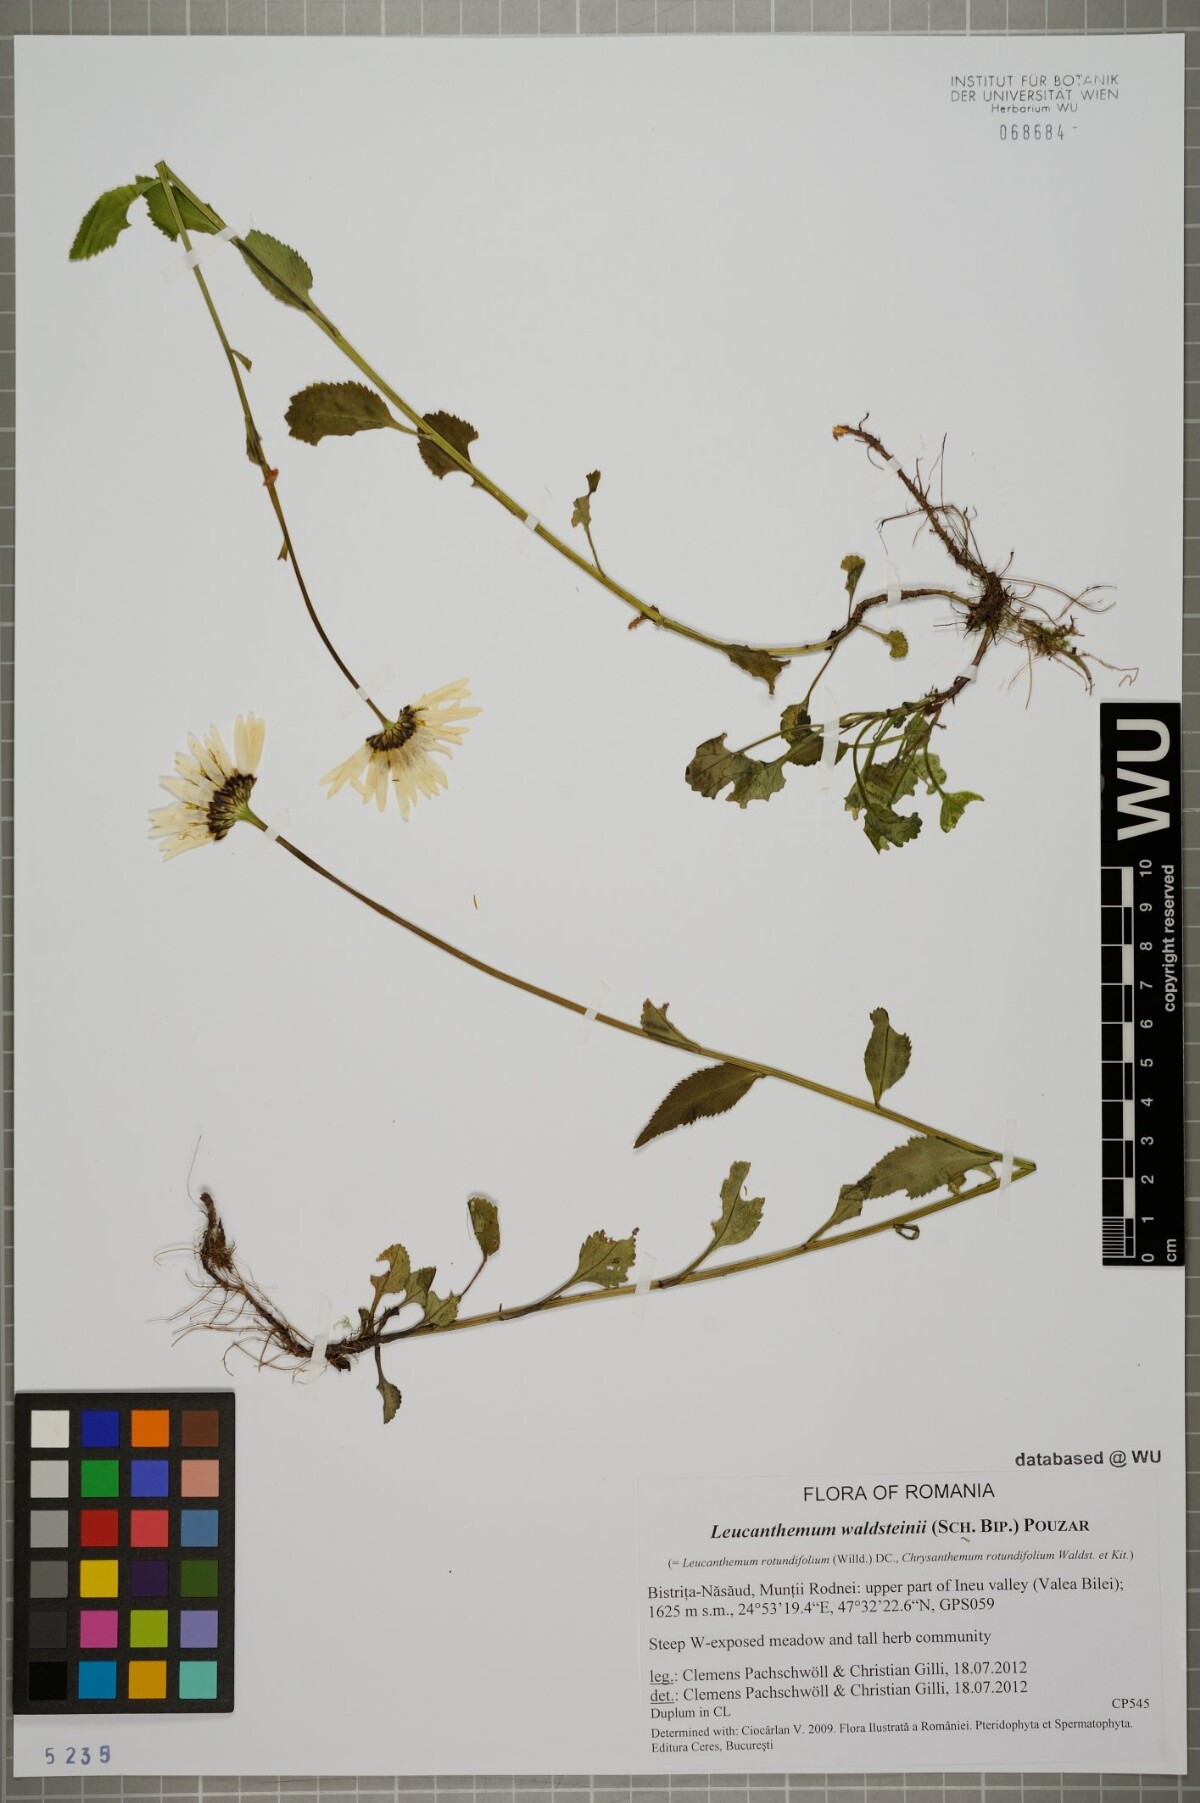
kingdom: Plantae
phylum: Tracheophyta
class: Magnoliopsida
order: Asterales
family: Asteraceae
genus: Leucanthemum
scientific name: Leucanthemum rotundifolium
